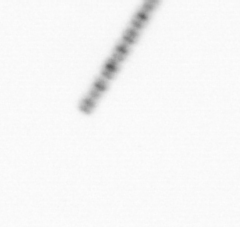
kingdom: Chromista
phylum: Ochrophyta
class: Bacillariophyceae
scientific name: Bacillariophyceae
